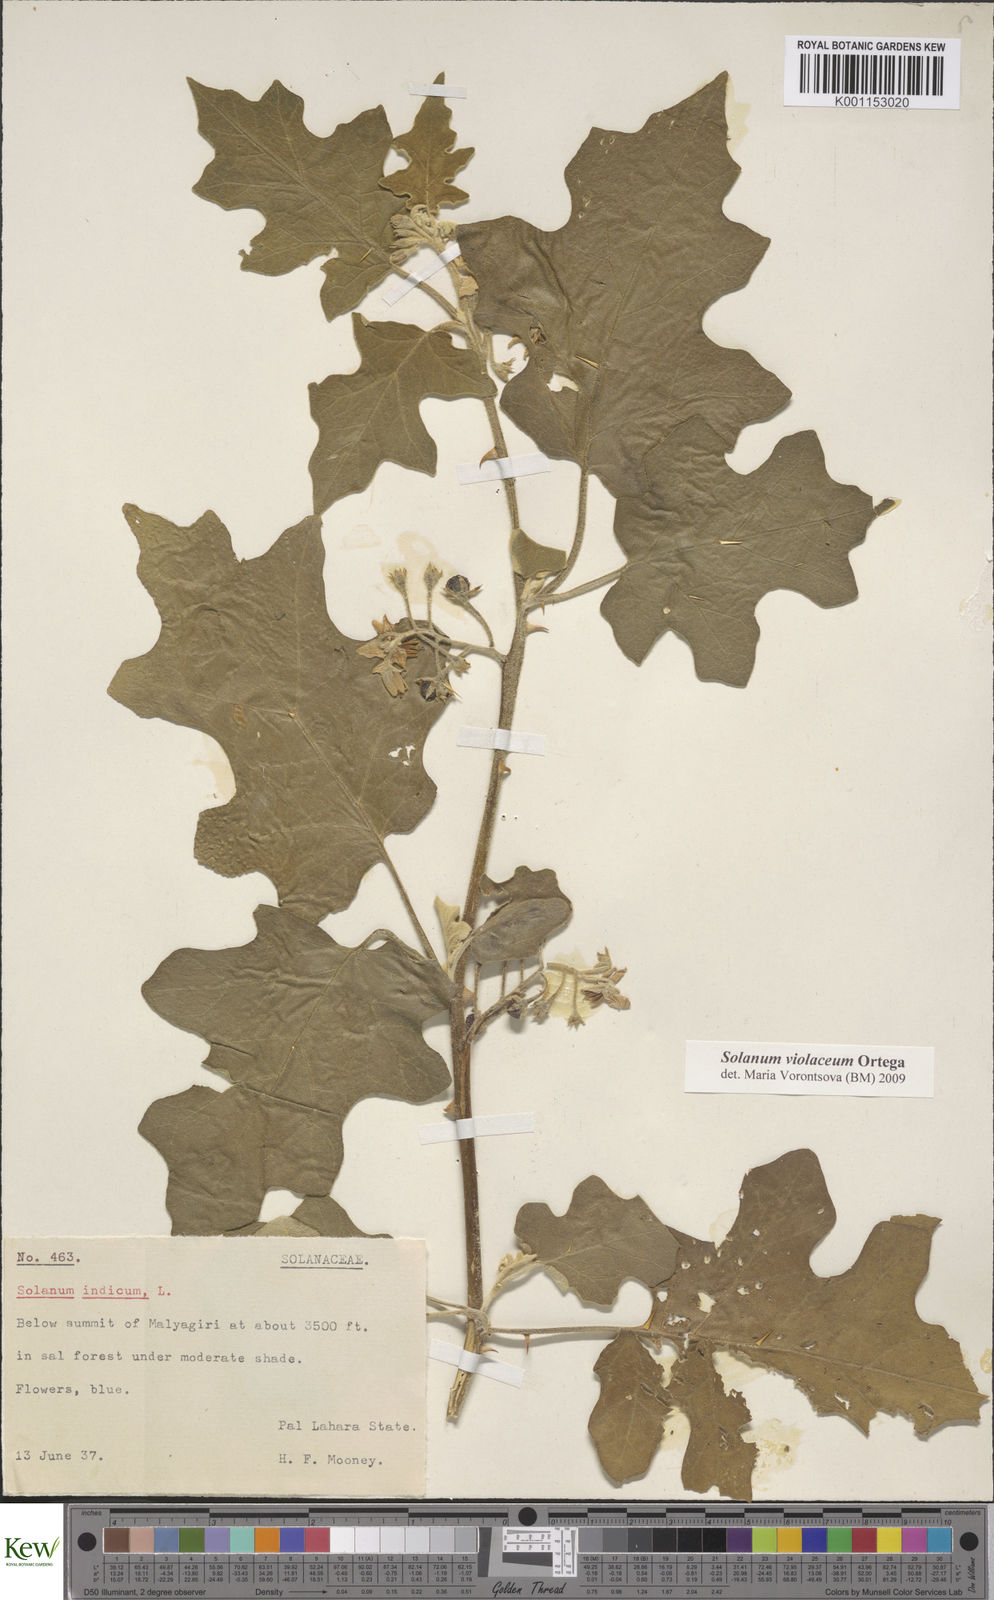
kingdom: Plantae
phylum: Tracheophyta
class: Magnoliopsida
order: Solanales
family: Solanaceae
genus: Solanum
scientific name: Solanum violaceum
